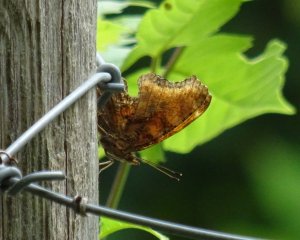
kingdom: Animalia
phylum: Arthropoda
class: Insecta
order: Lepidoptera
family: Nymphalidae
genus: Polygonia
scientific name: Polygonia comma
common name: Eastern Comma
